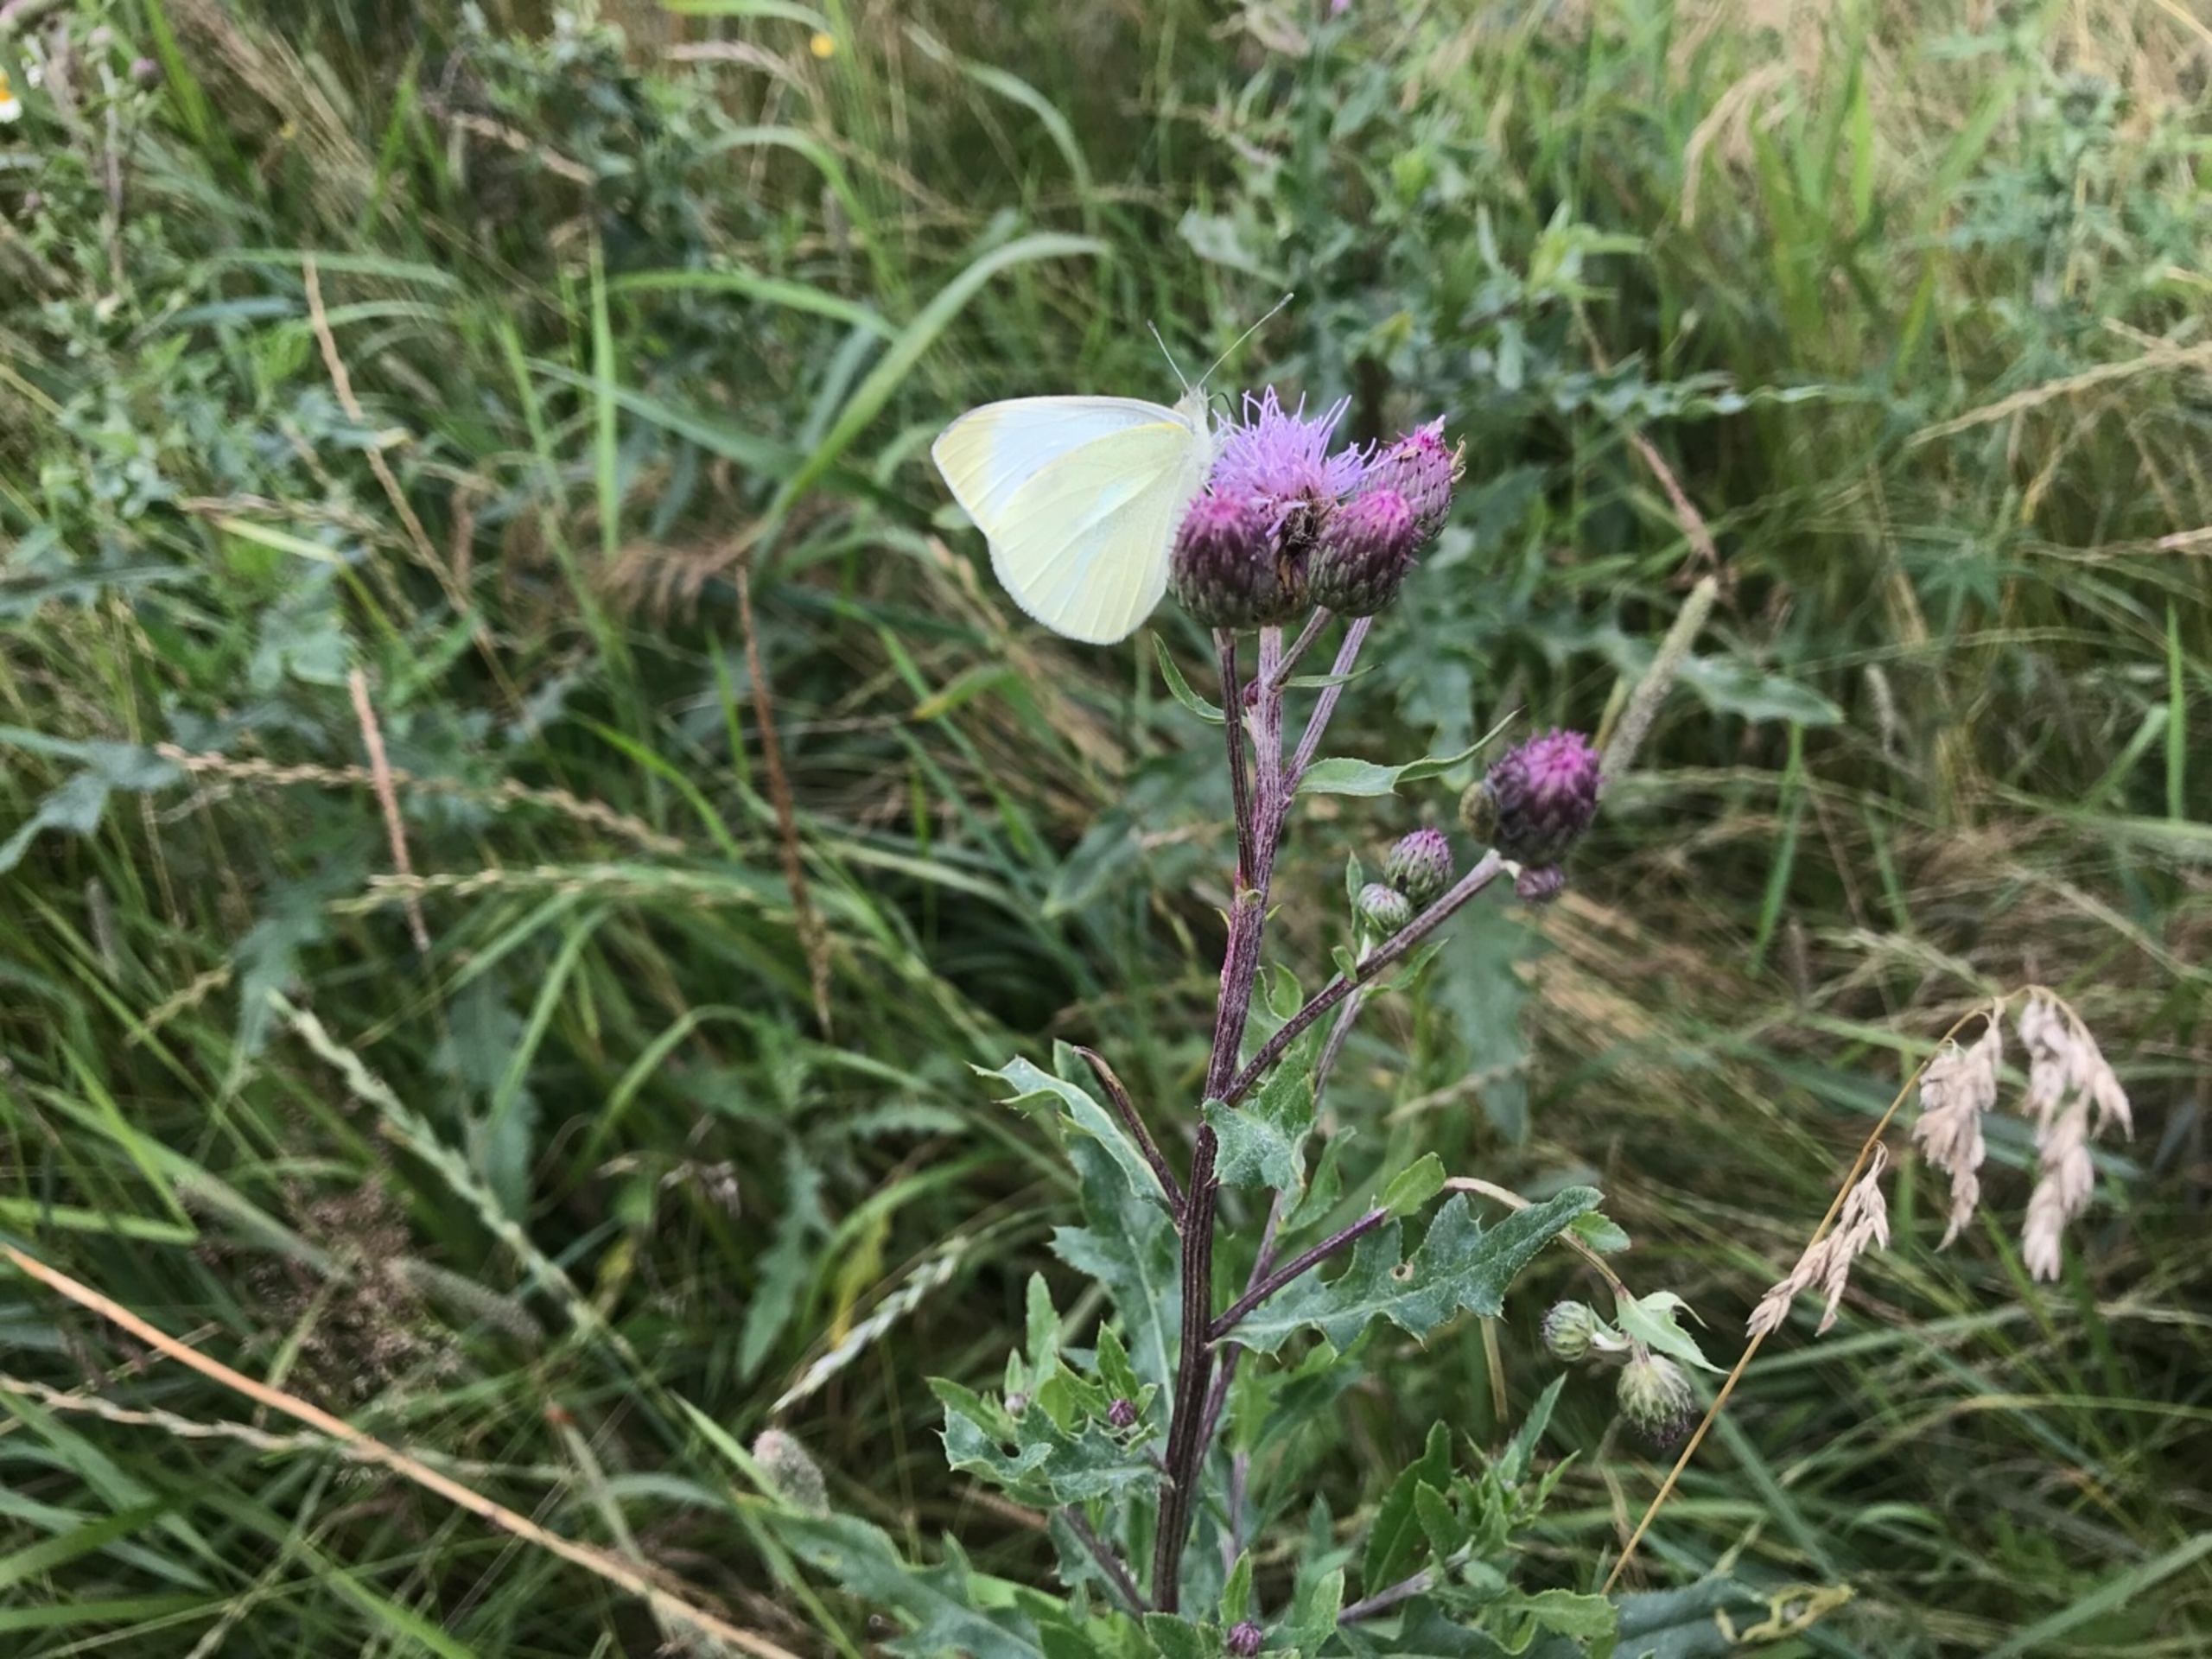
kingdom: Animalia
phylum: Arthropoda
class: Insecta
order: Lepidoptera
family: Pieridae
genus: Pieris
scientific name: Pieris rapae
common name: Lille kålsommerfugl
